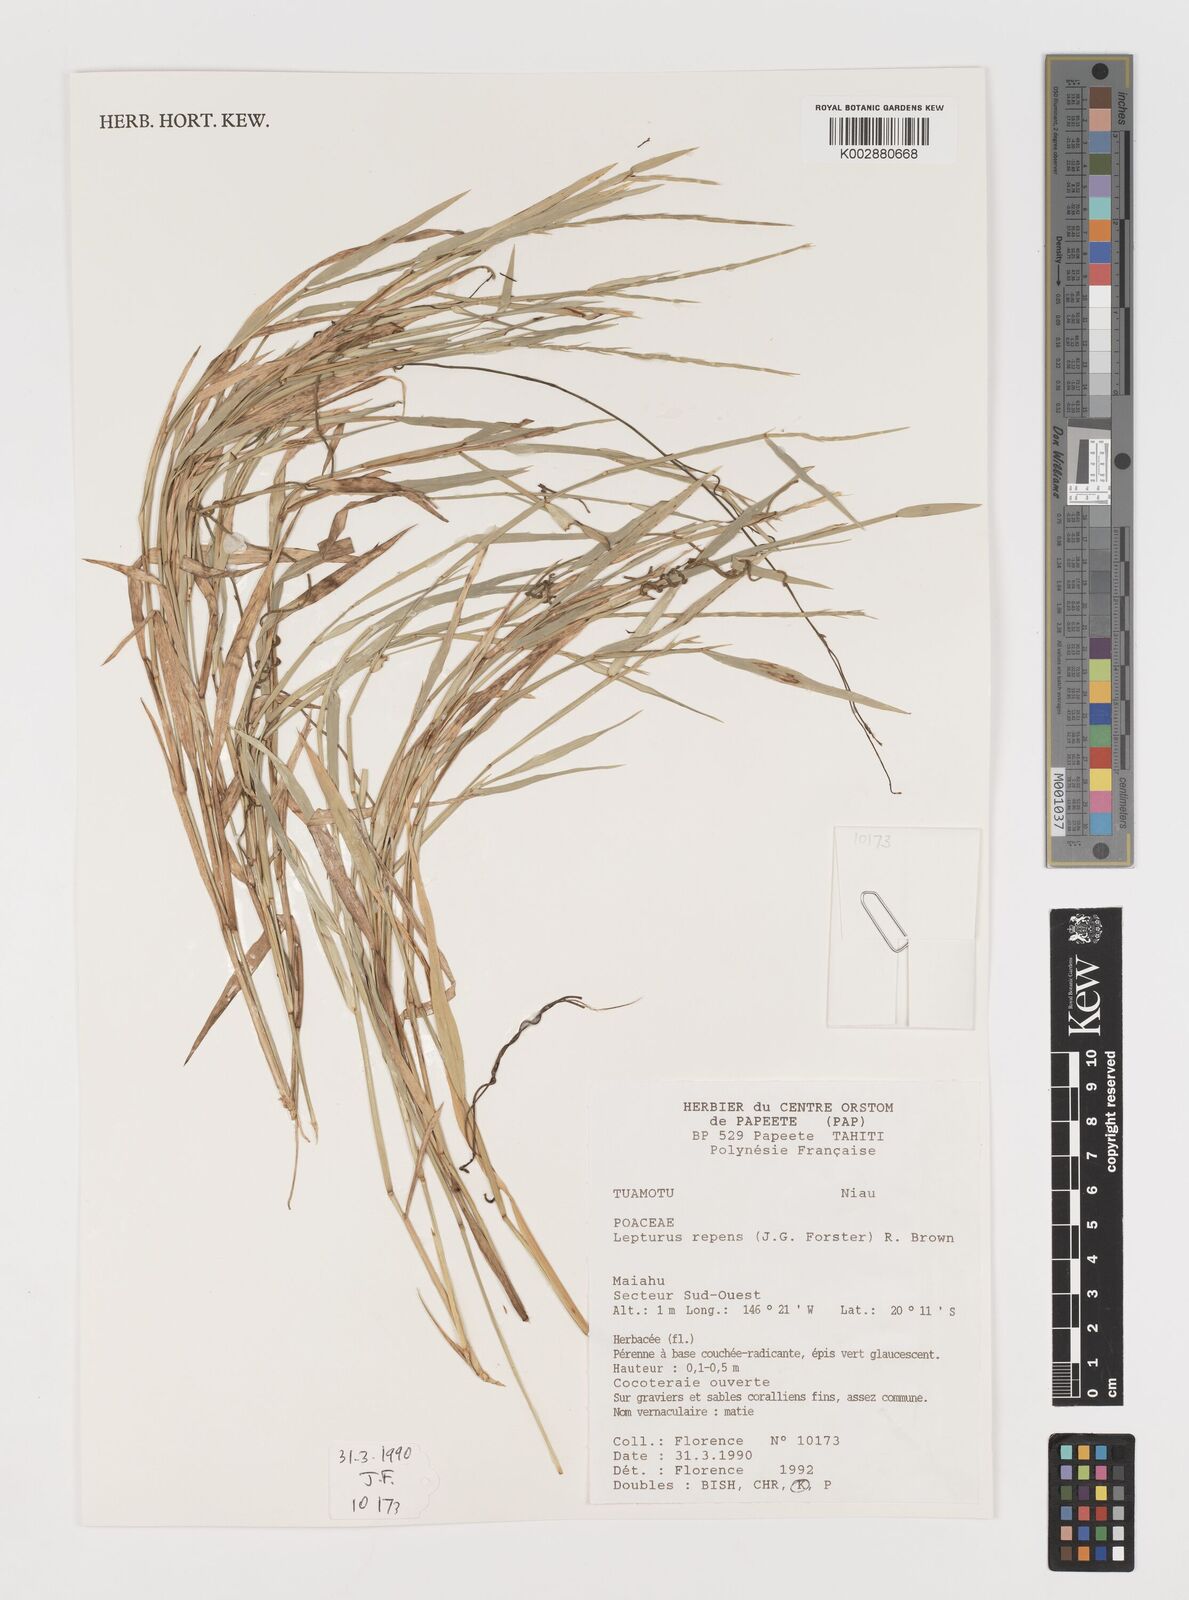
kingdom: Plantae
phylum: Tracheophyta
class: Liliopsida
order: Poales
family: Poaceae
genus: Lepturus
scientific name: Lepturus repens
